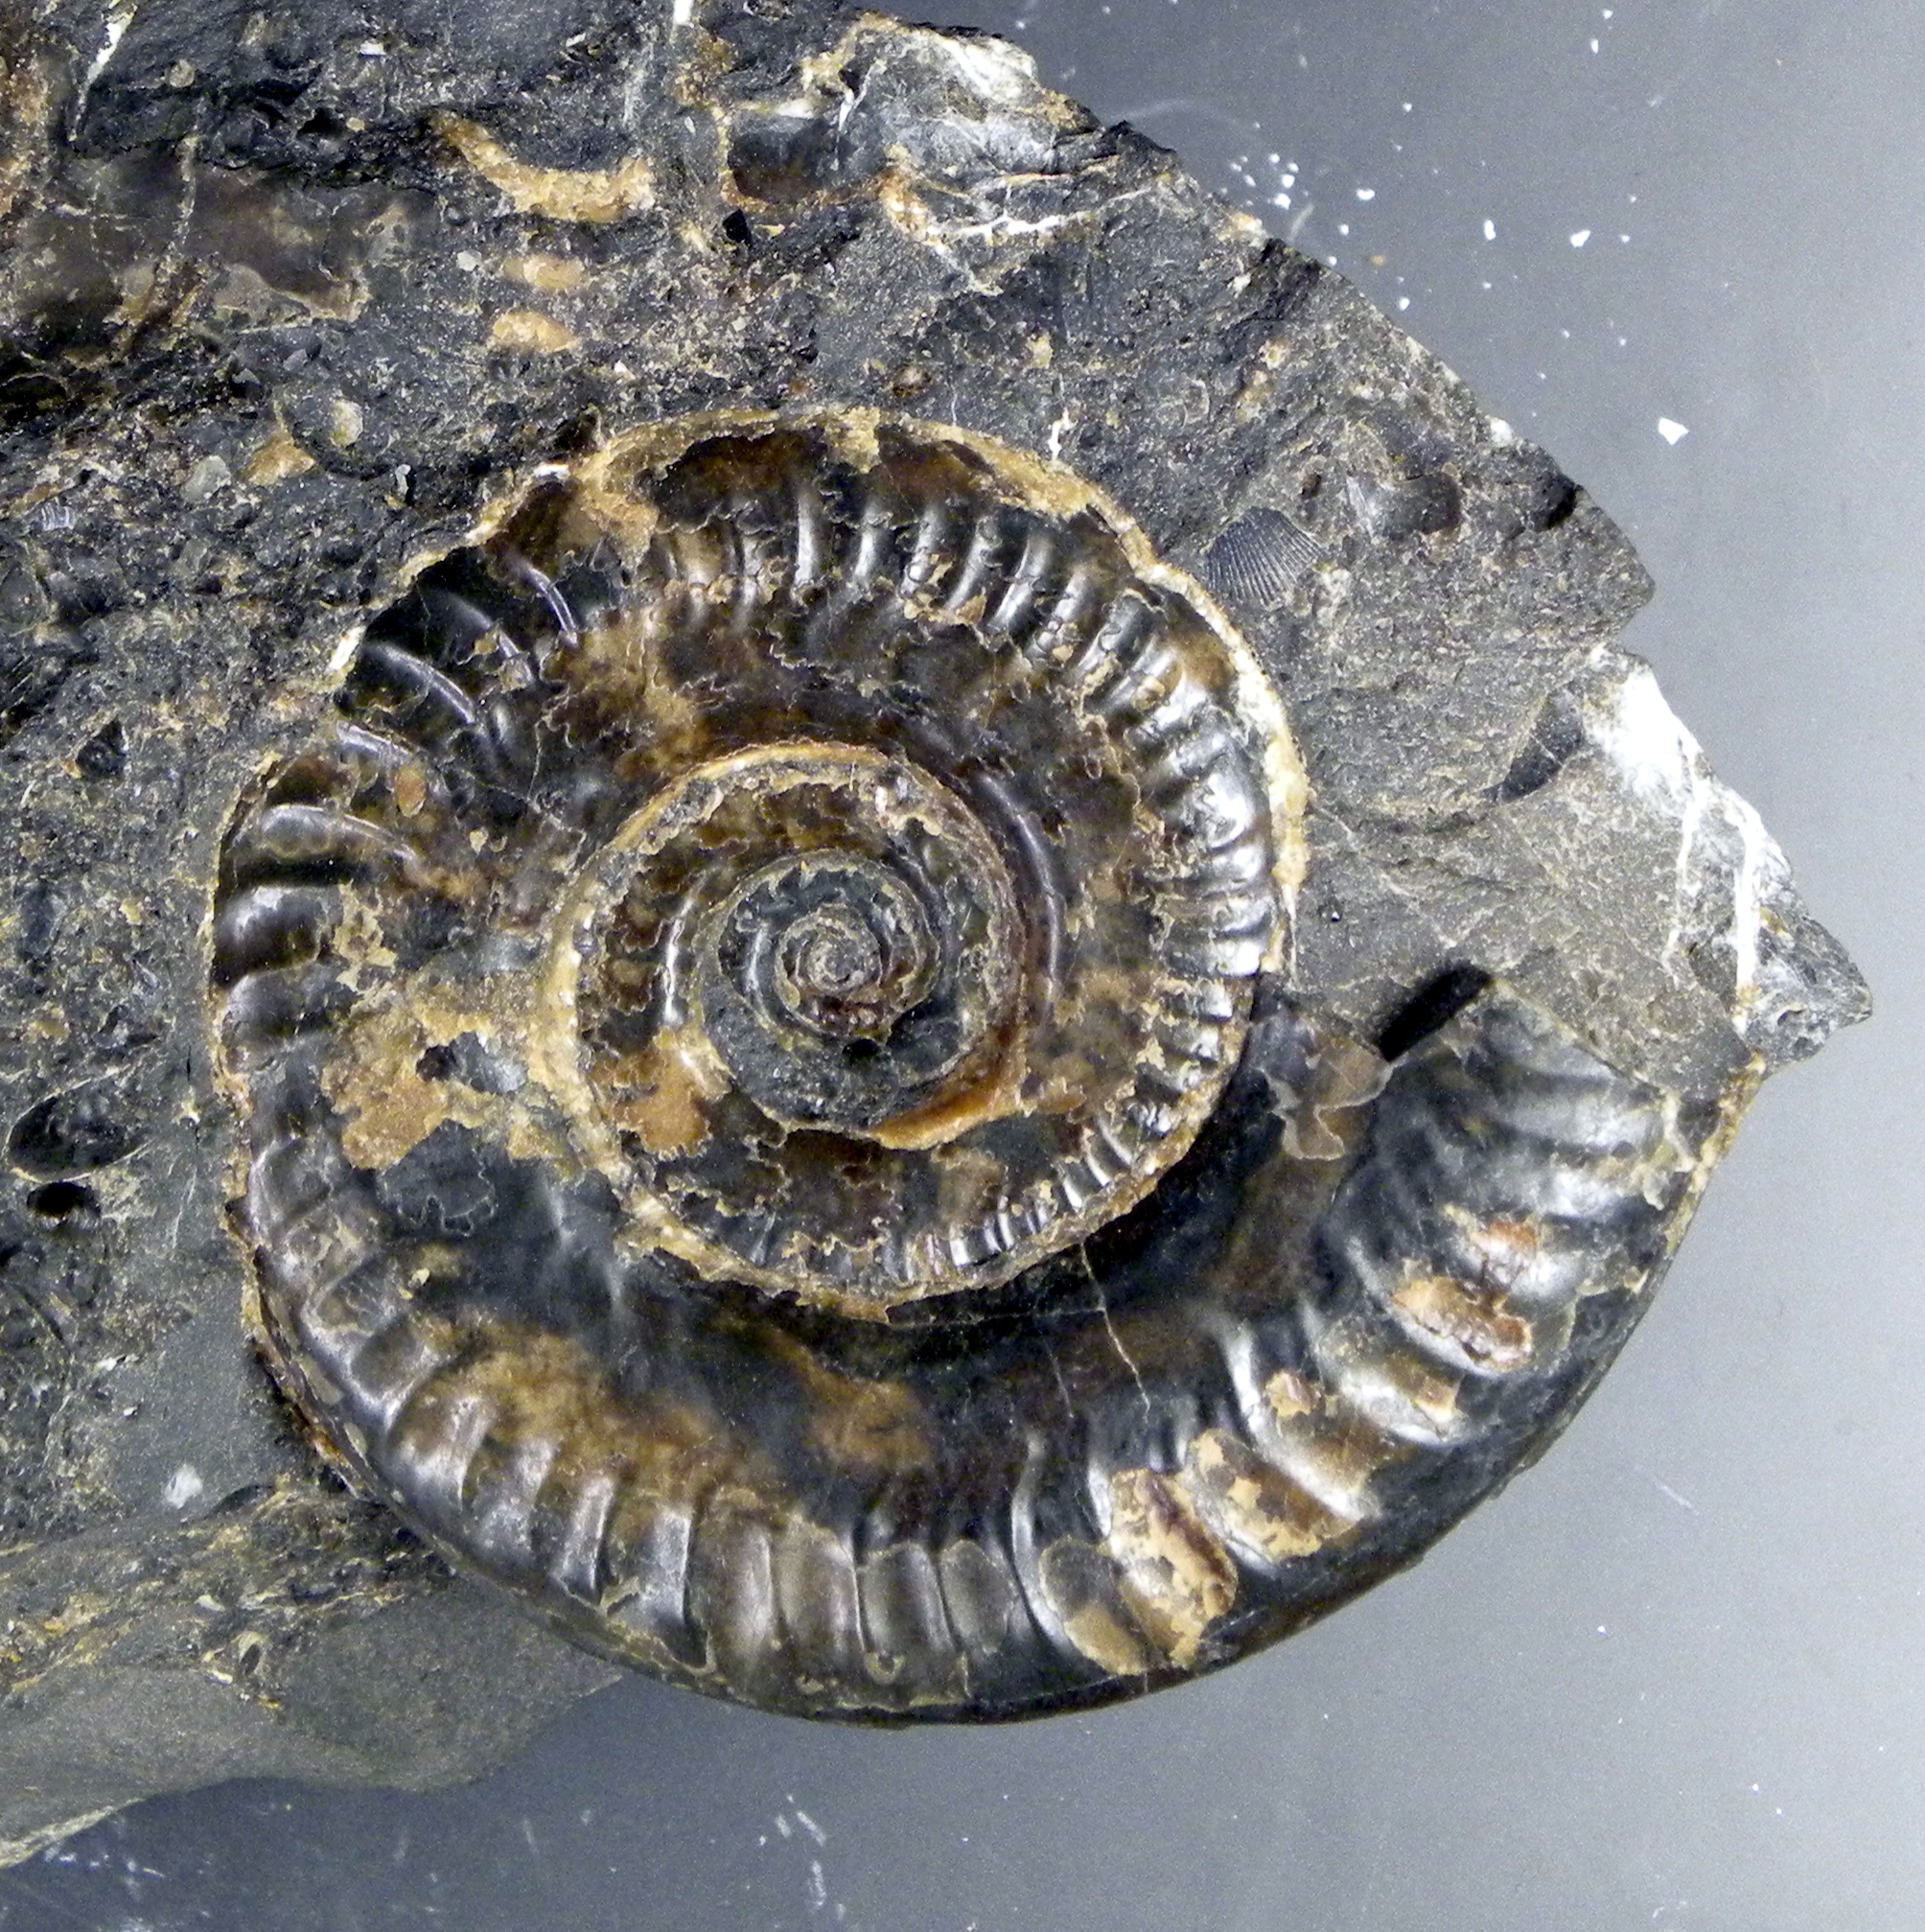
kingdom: Animalia
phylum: Mollusca
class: Cephalopoda
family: Hildoceratidae
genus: Hildoceras
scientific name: Hildoceras lusitanicum
